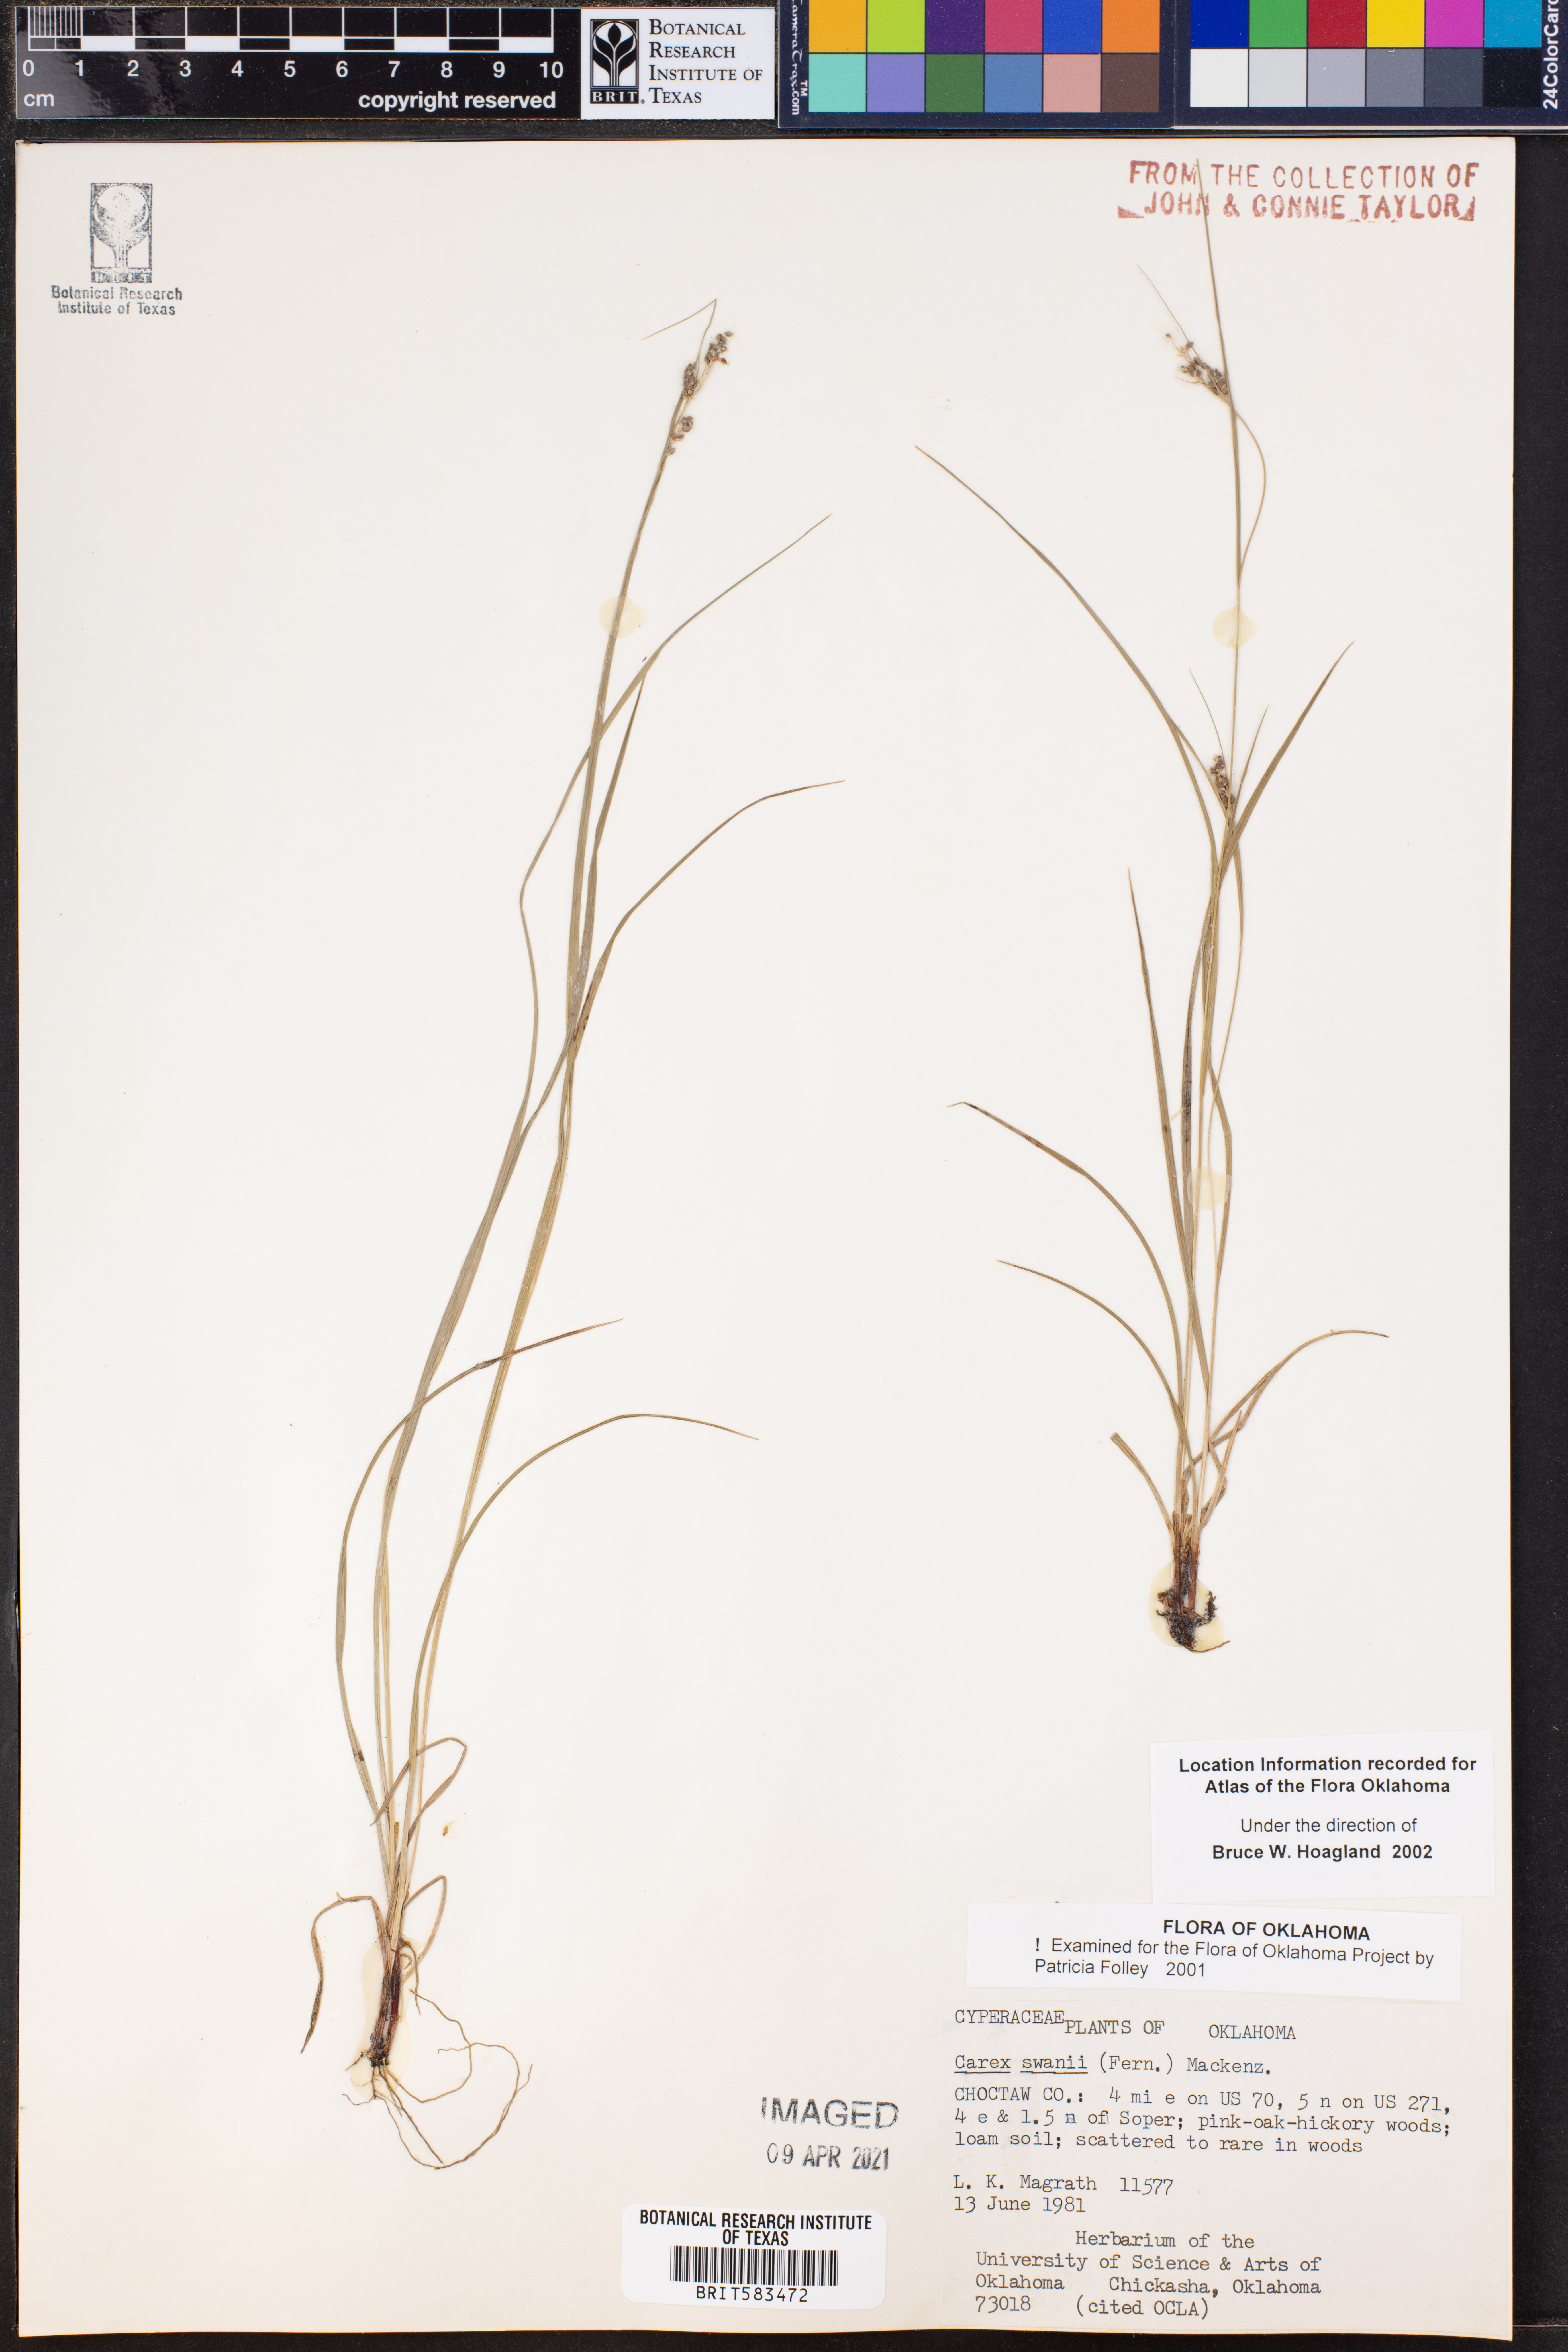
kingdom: Plantae
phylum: Tracheophyta
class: Liliopsida
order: Poales
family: Cyperaceae
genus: Carex
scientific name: Carex swanii
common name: Downy green sedge
